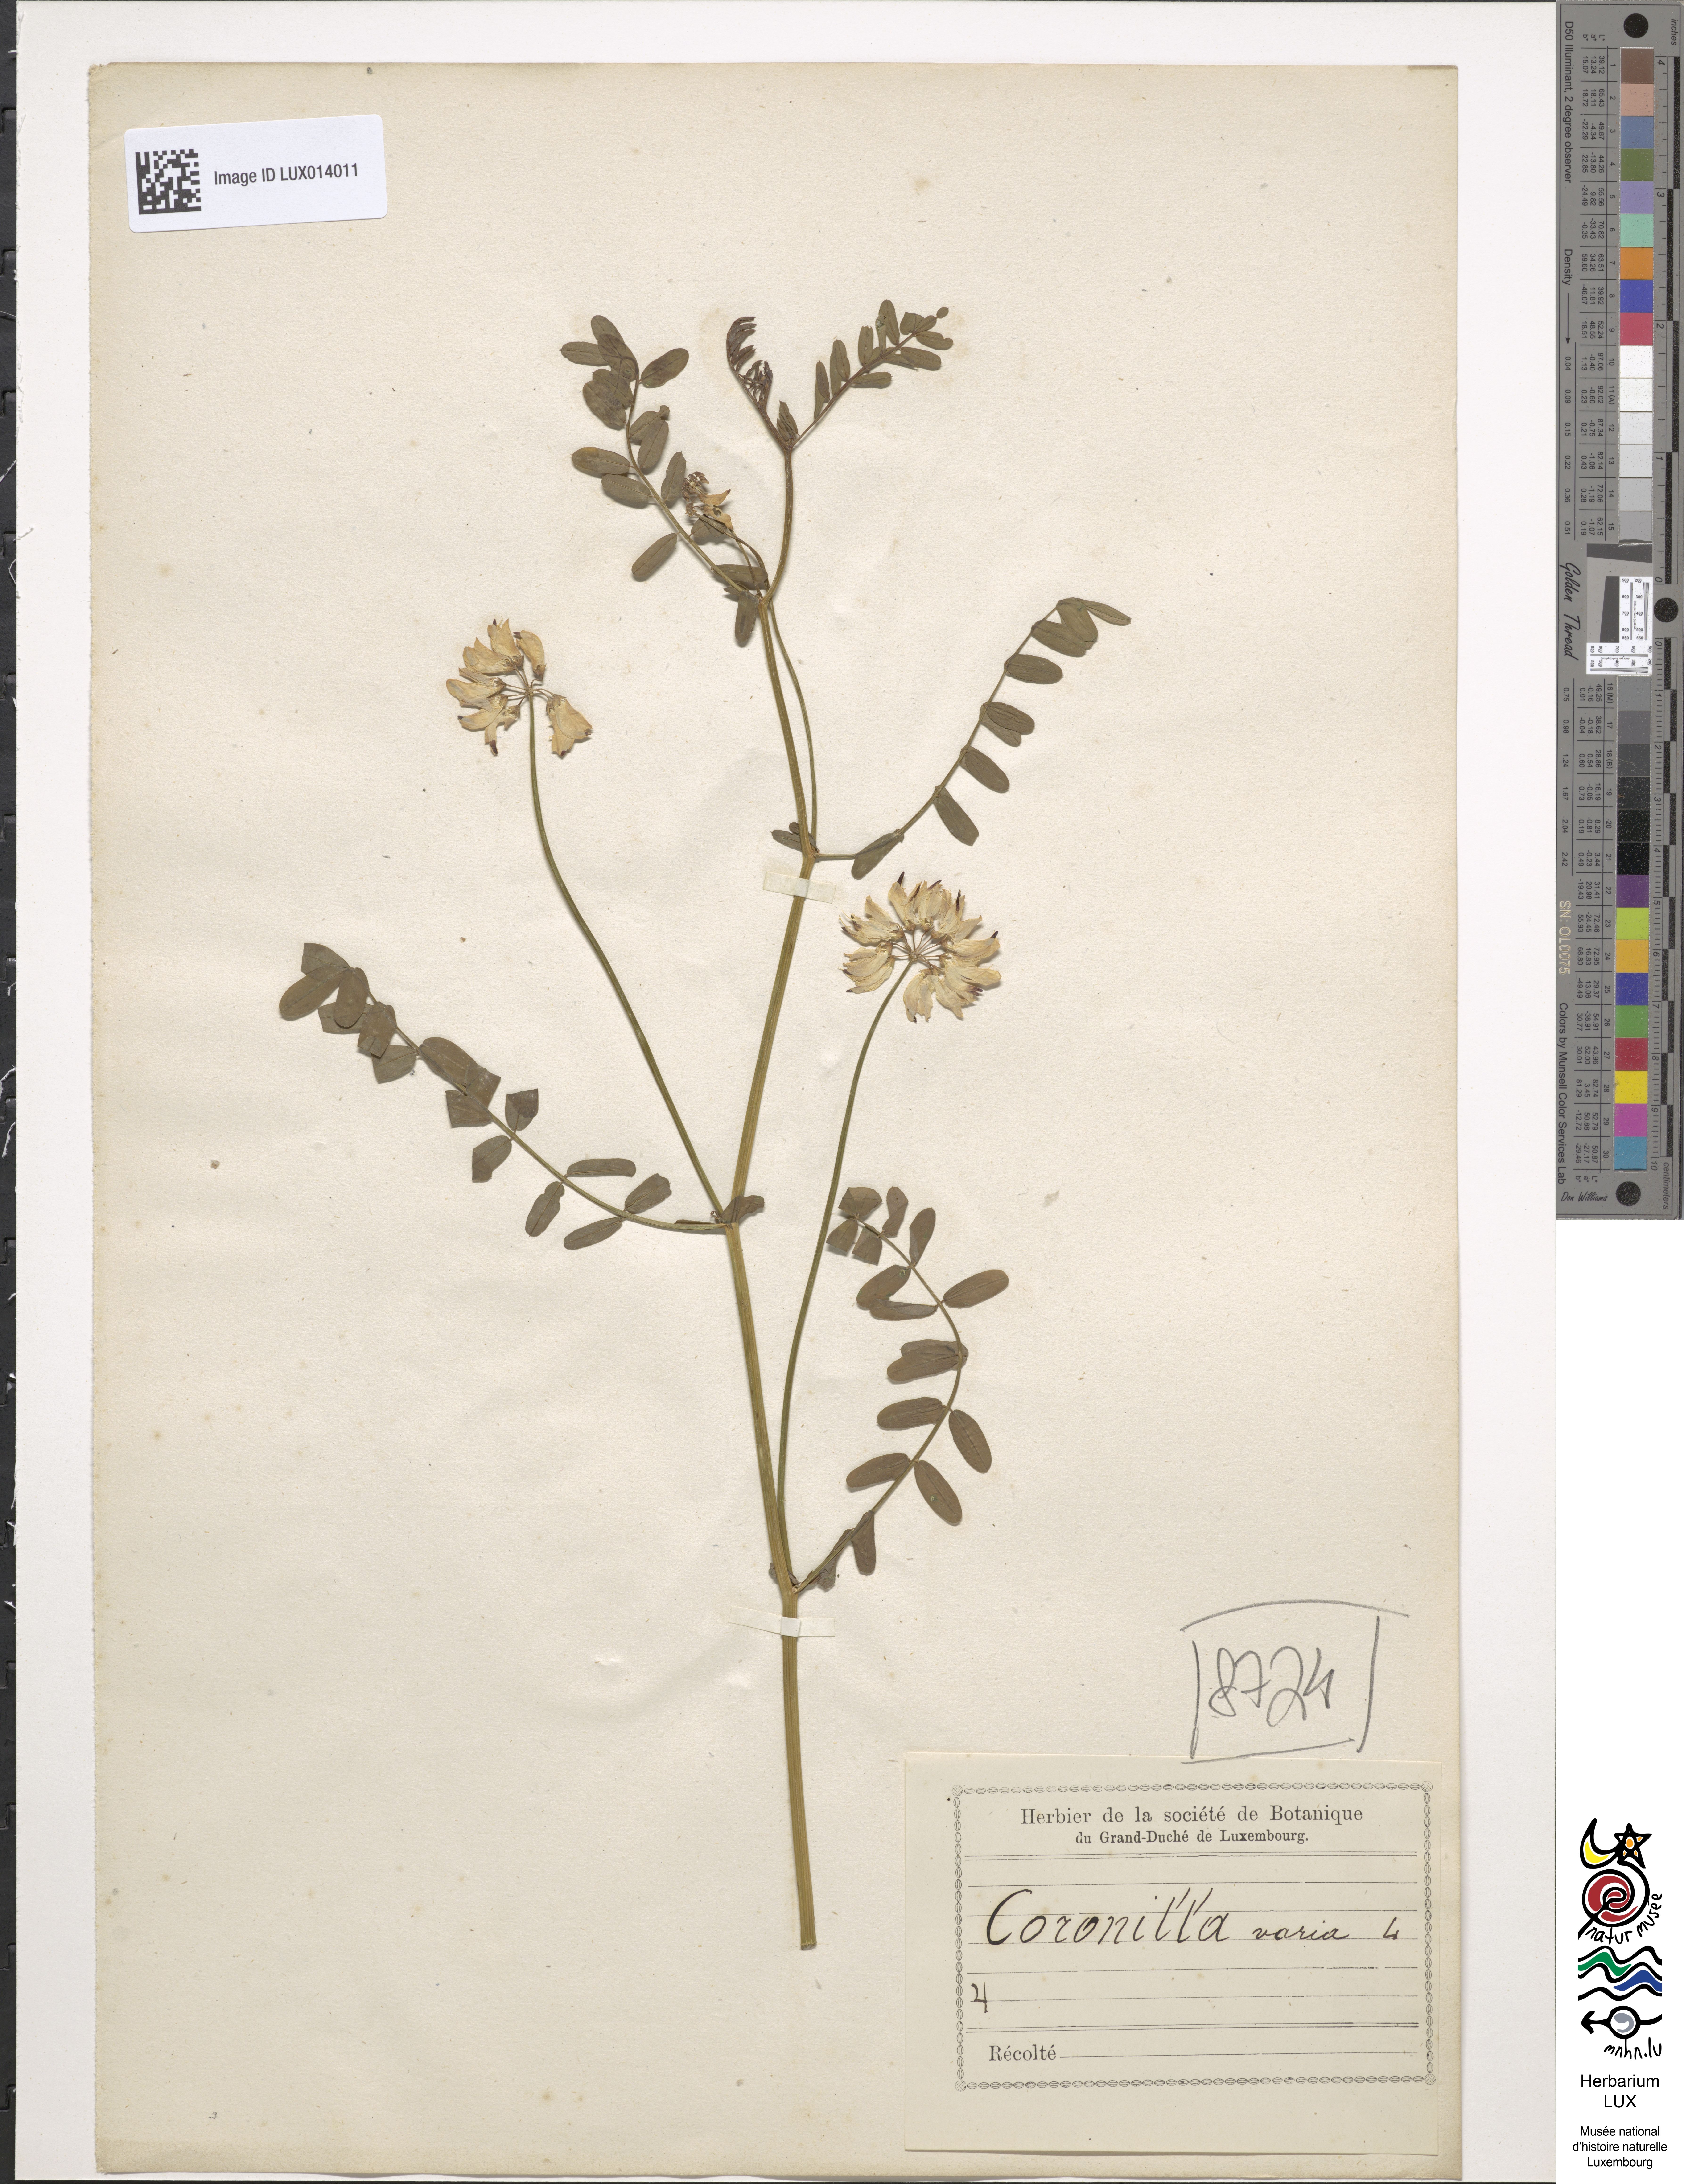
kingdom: Plantae
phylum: Tracheophyta
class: Magnoliopsida
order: Fabales
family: Fabaceae
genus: Coronilla
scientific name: Coronilla varia
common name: Crownvetch
